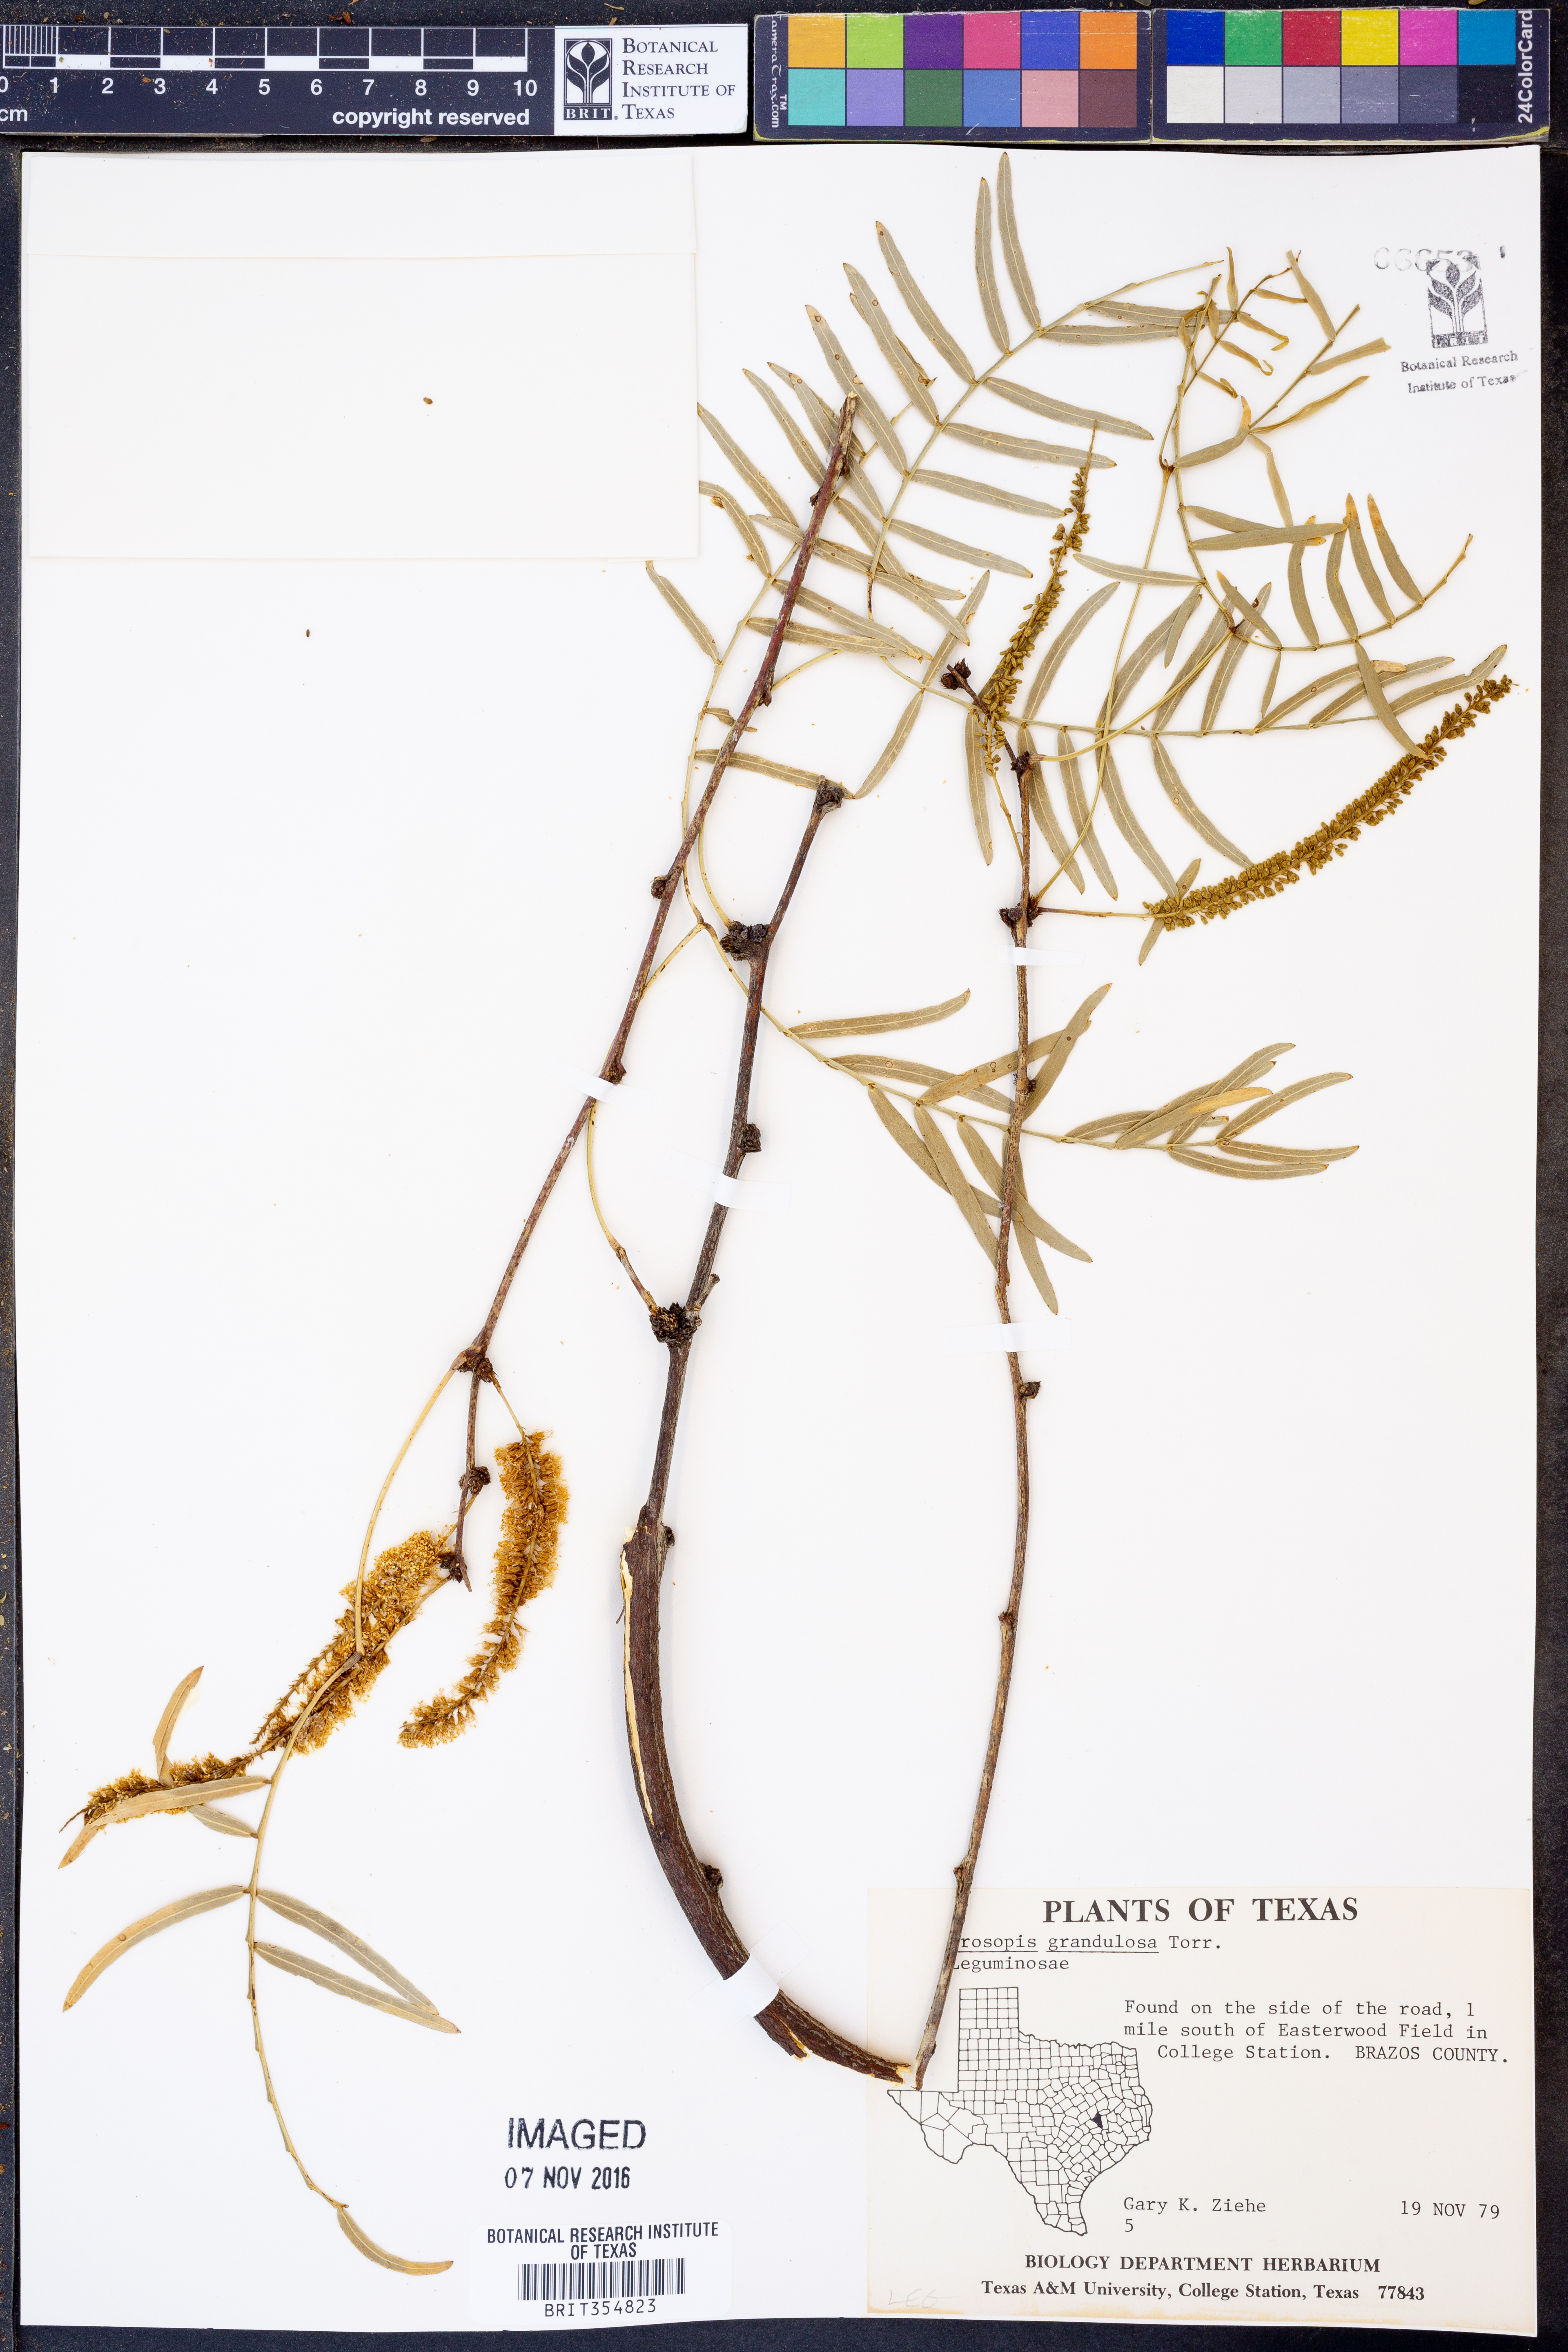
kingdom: Plantae
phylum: Tracheophyta
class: Magnoliopsida
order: Fabales
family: Fabaceae
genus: Prosopis
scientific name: Prosopis glandulosa
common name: Honey mesquite
